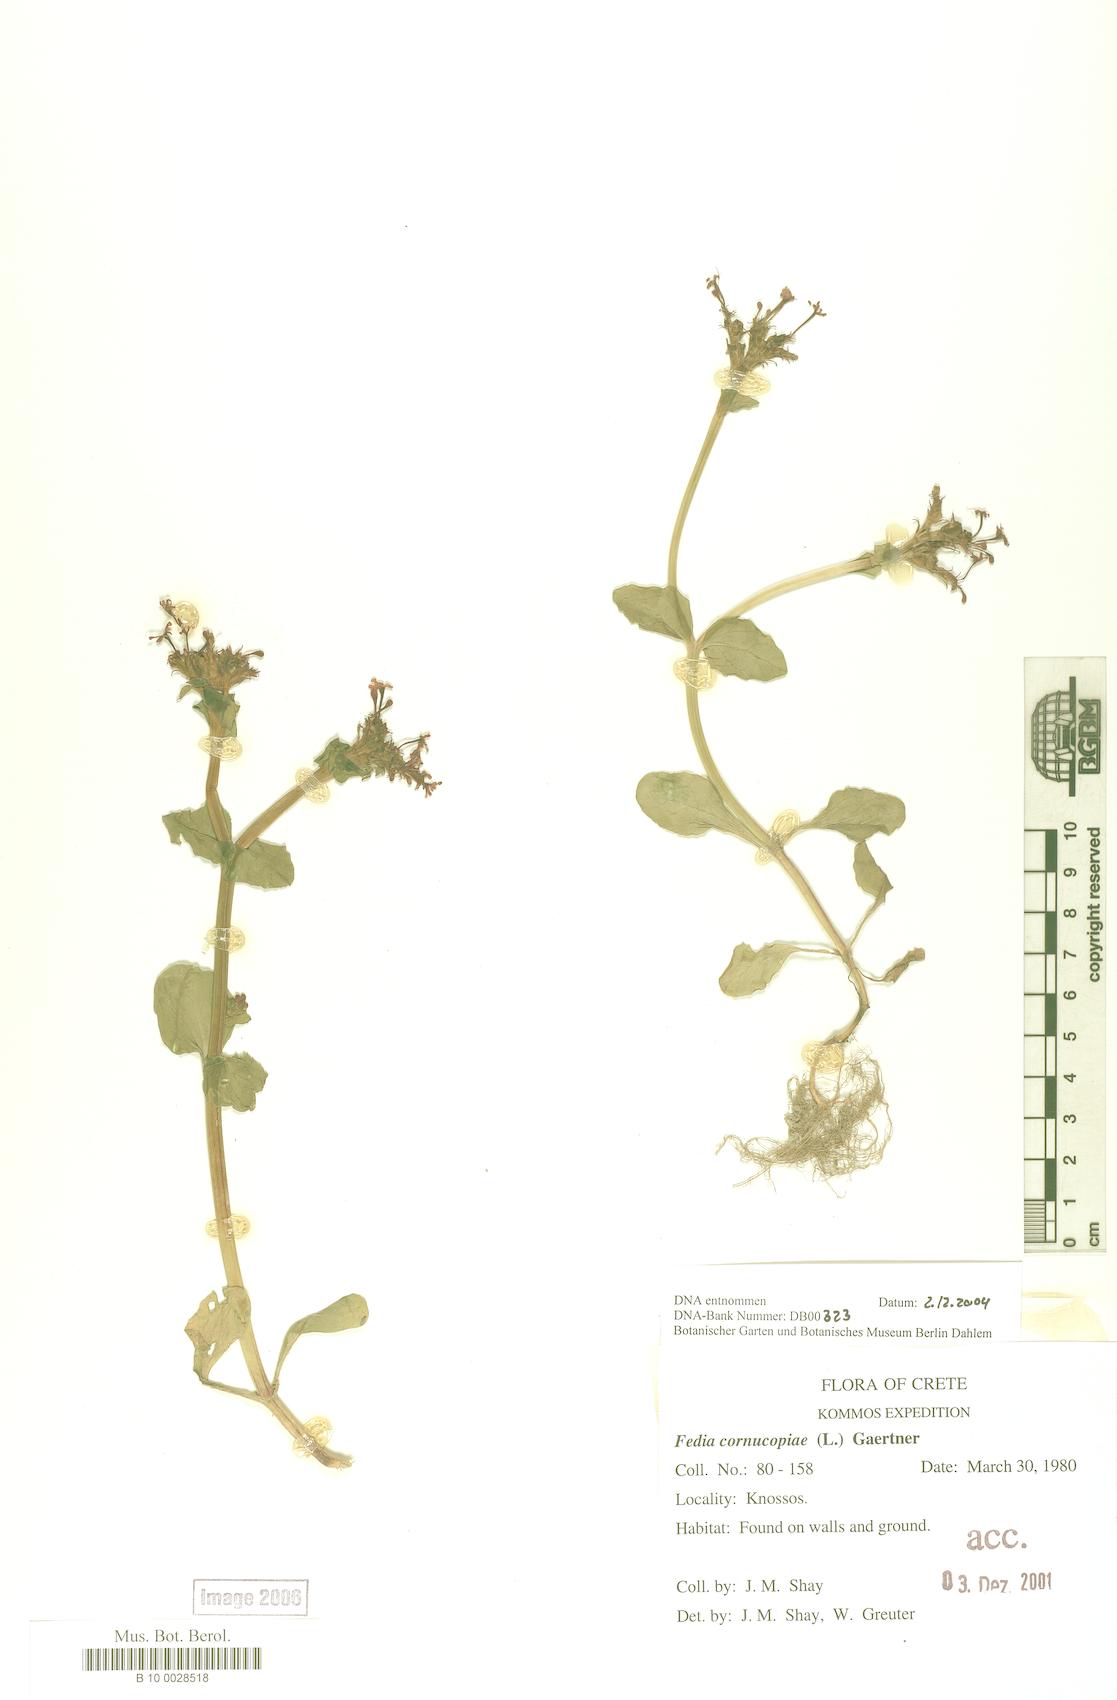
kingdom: Plantae
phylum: Tracheophyta
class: Magnoliopsida
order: Dipsacales
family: Caprifoliaceae
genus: Fedia
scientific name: Fedia cornucopiae
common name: Horn-of-plenty
